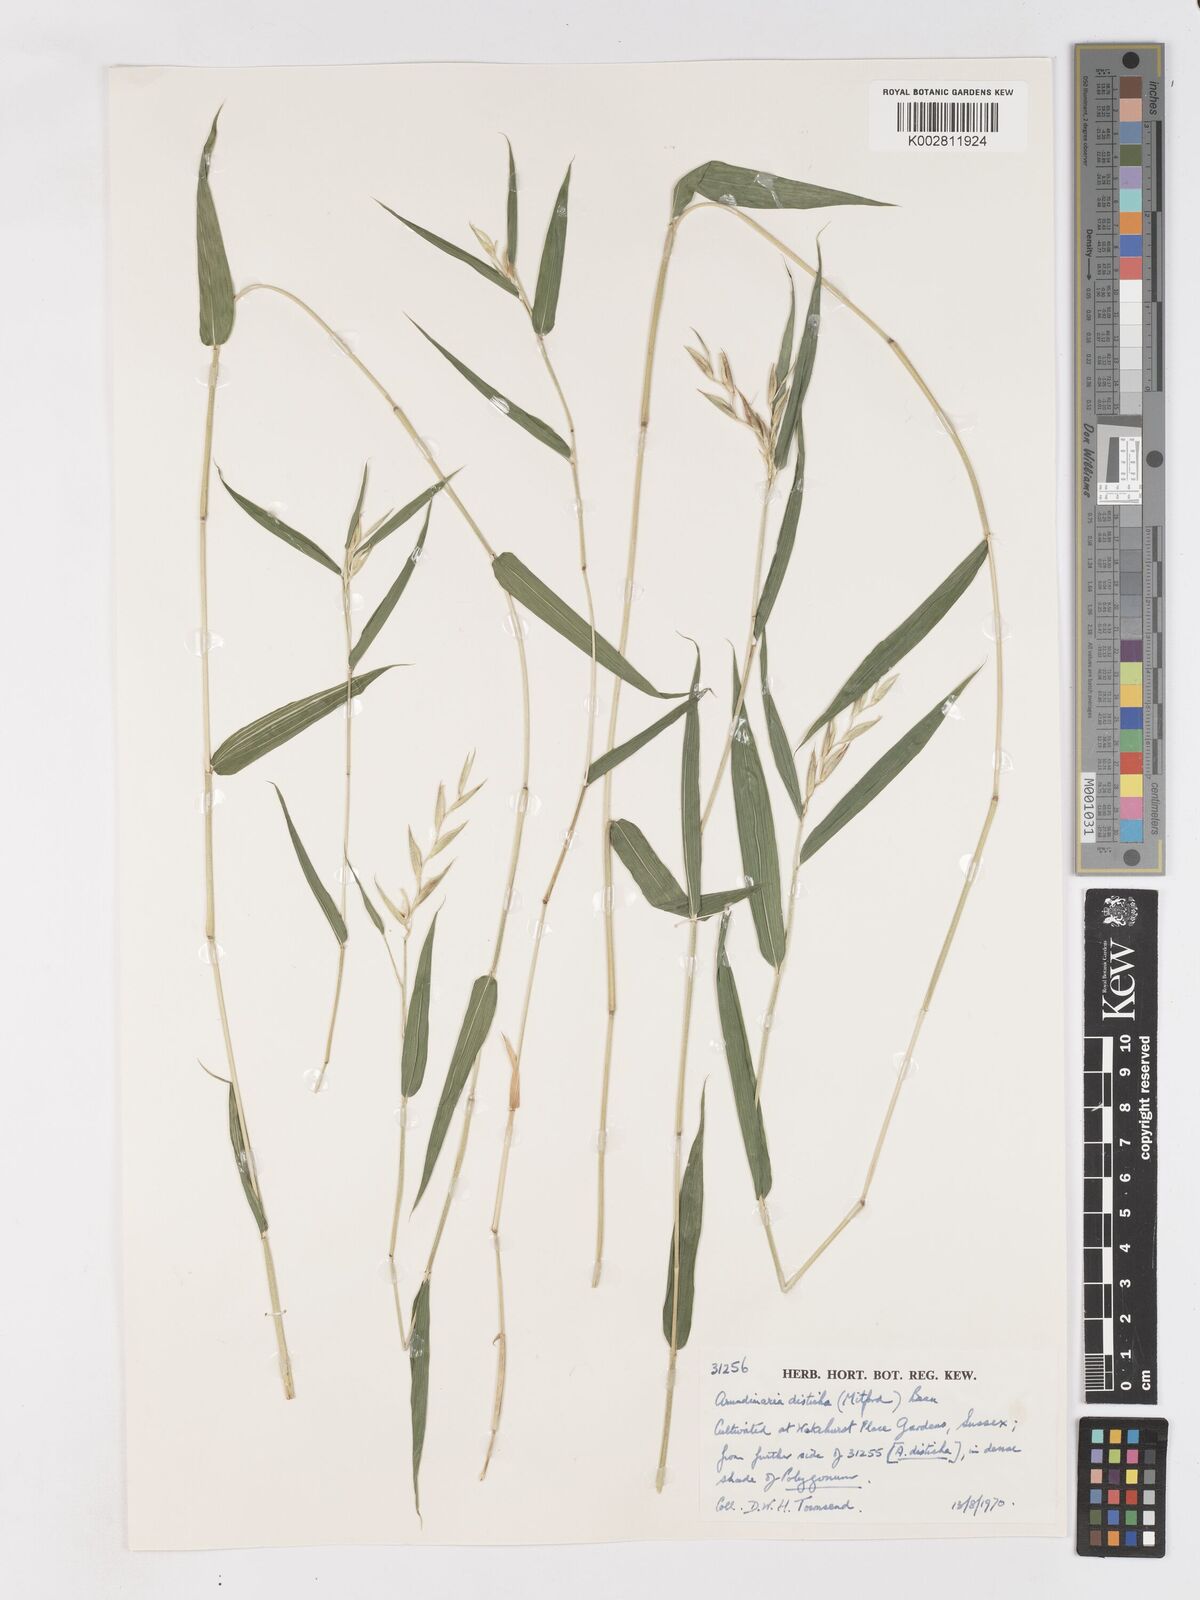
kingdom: Plantae
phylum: Tracheophyta
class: Liliopsida
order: Poales
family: Poaceae
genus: Pleioblastus
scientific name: Pleioblastus distichus
